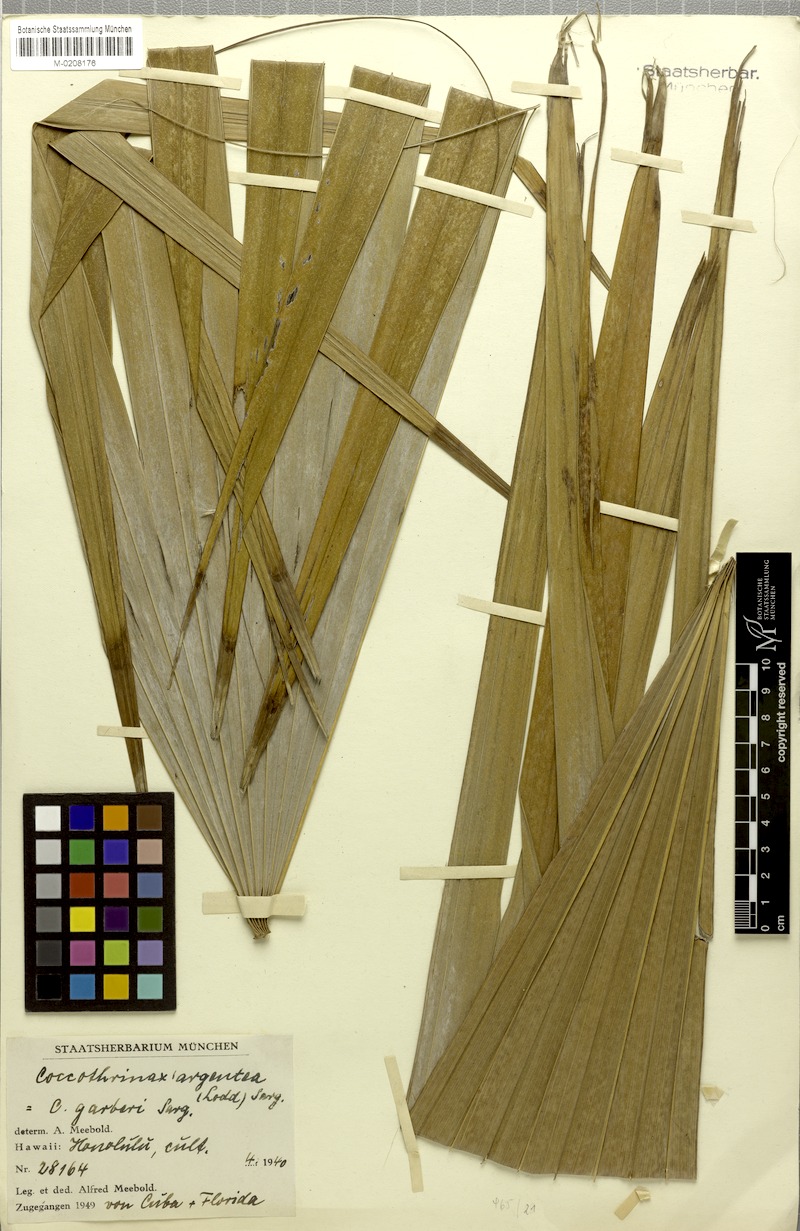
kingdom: Plantae
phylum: Tracheophyta
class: Liliopsida
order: Arecales
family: Arecaceae
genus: Coccothrinax
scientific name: Coccothrinax argentea
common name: Broom palm
